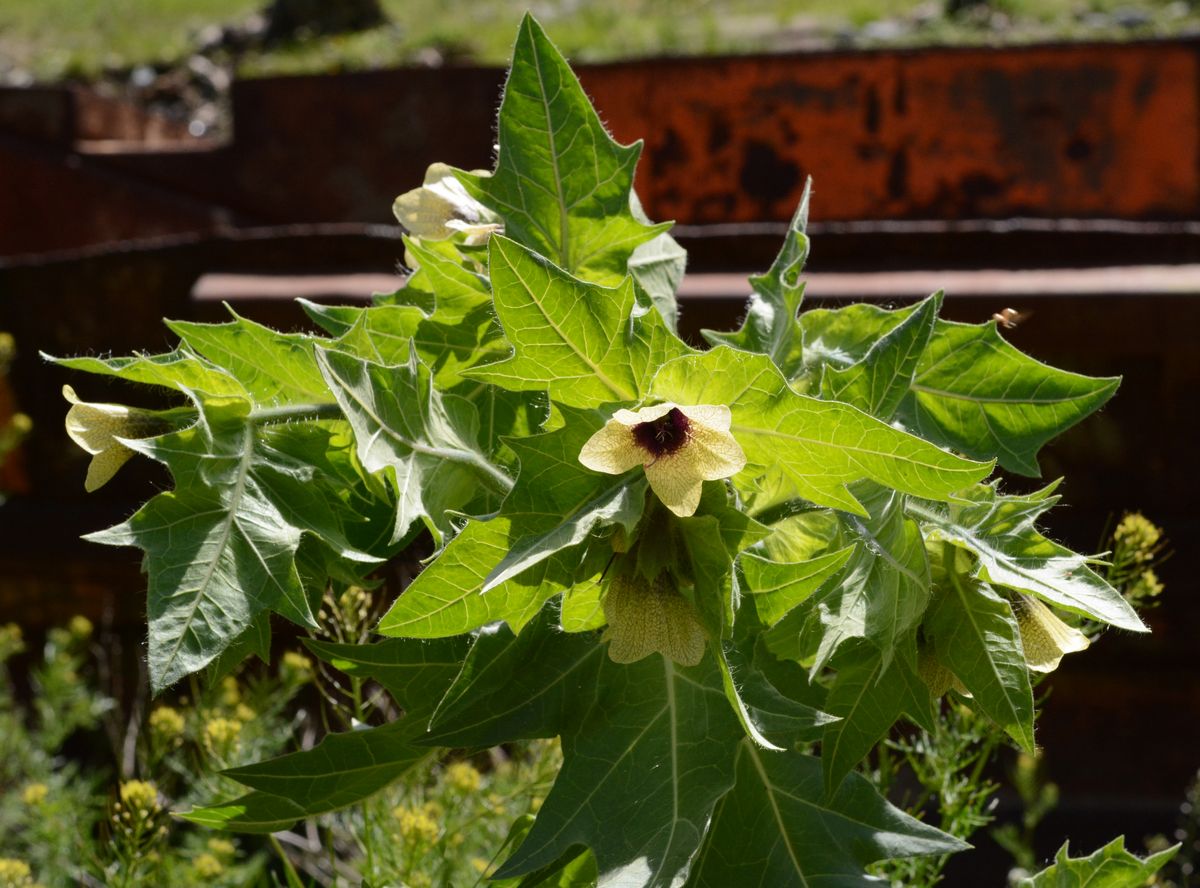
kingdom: Plantae
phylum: Tracheophyta
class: Magnoliopsida
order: Solanales
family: Solanaceae
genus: Hyoscyamus
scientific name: Hyoscyamus niger
